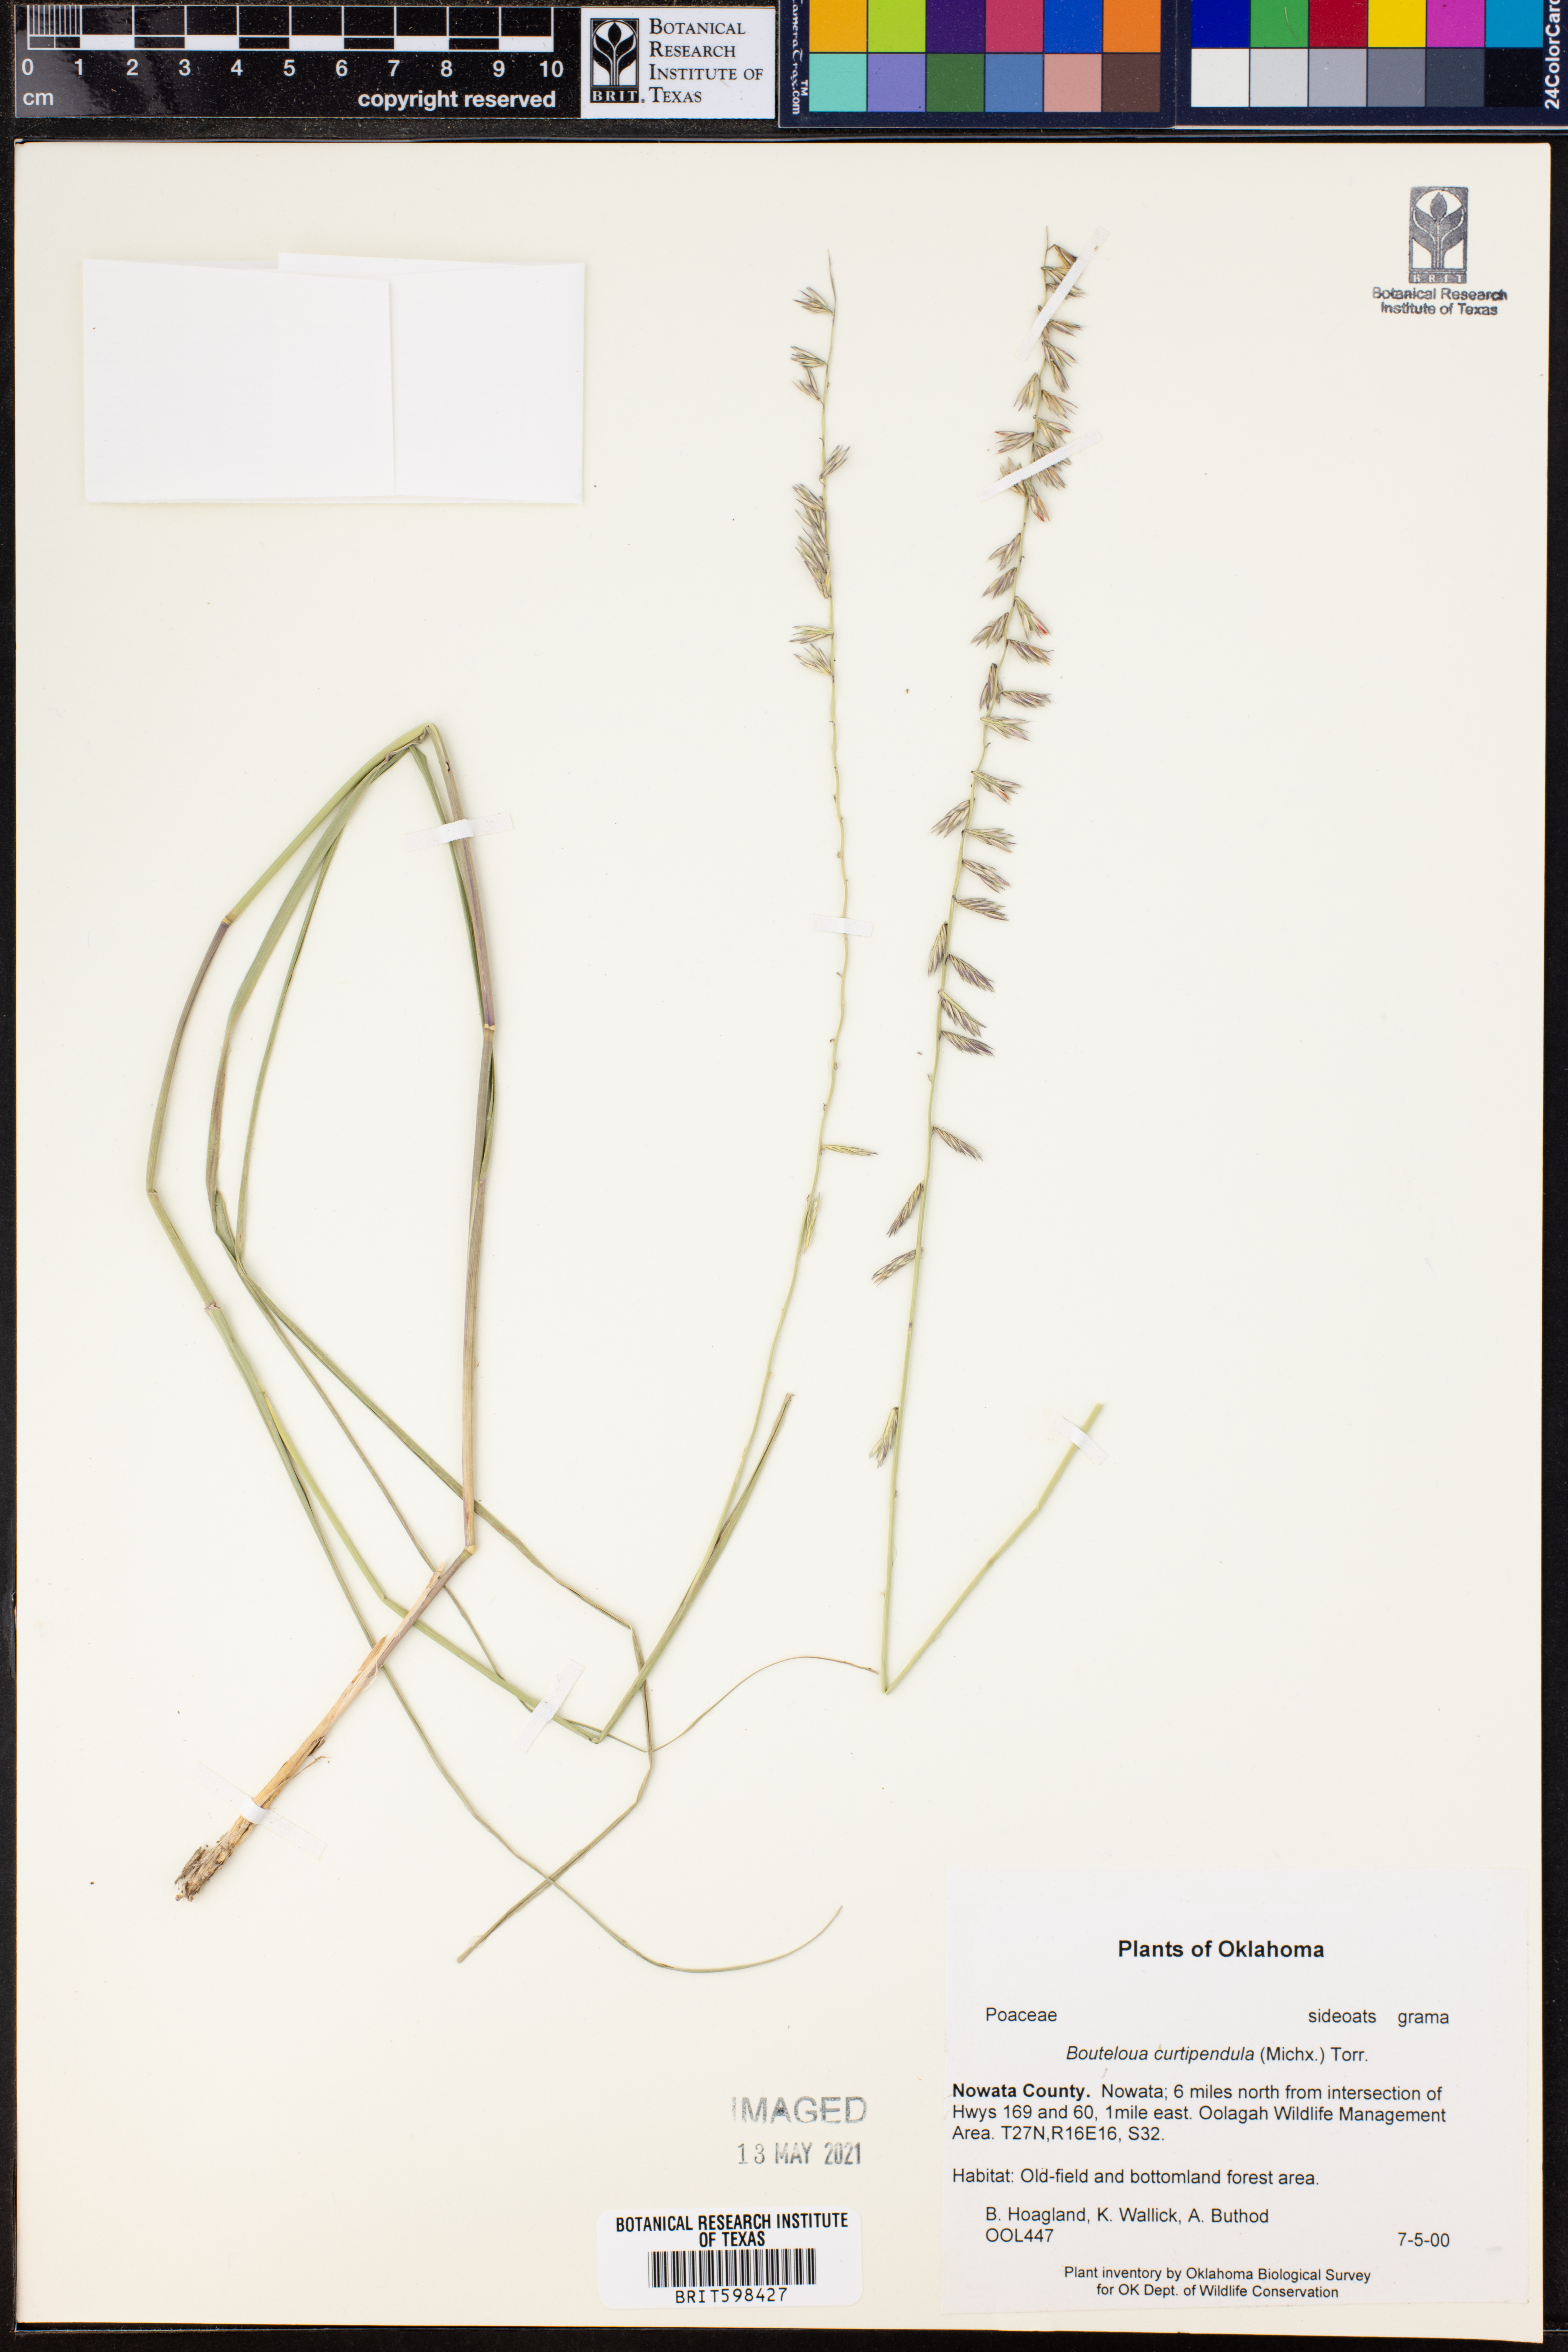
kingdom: Plantae
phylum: Tracheophyta
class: Liliopsida
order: Poales
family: Poaceae
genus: Bouteloua
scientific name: Bouteloua curtipendula
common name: Side-oats grama
